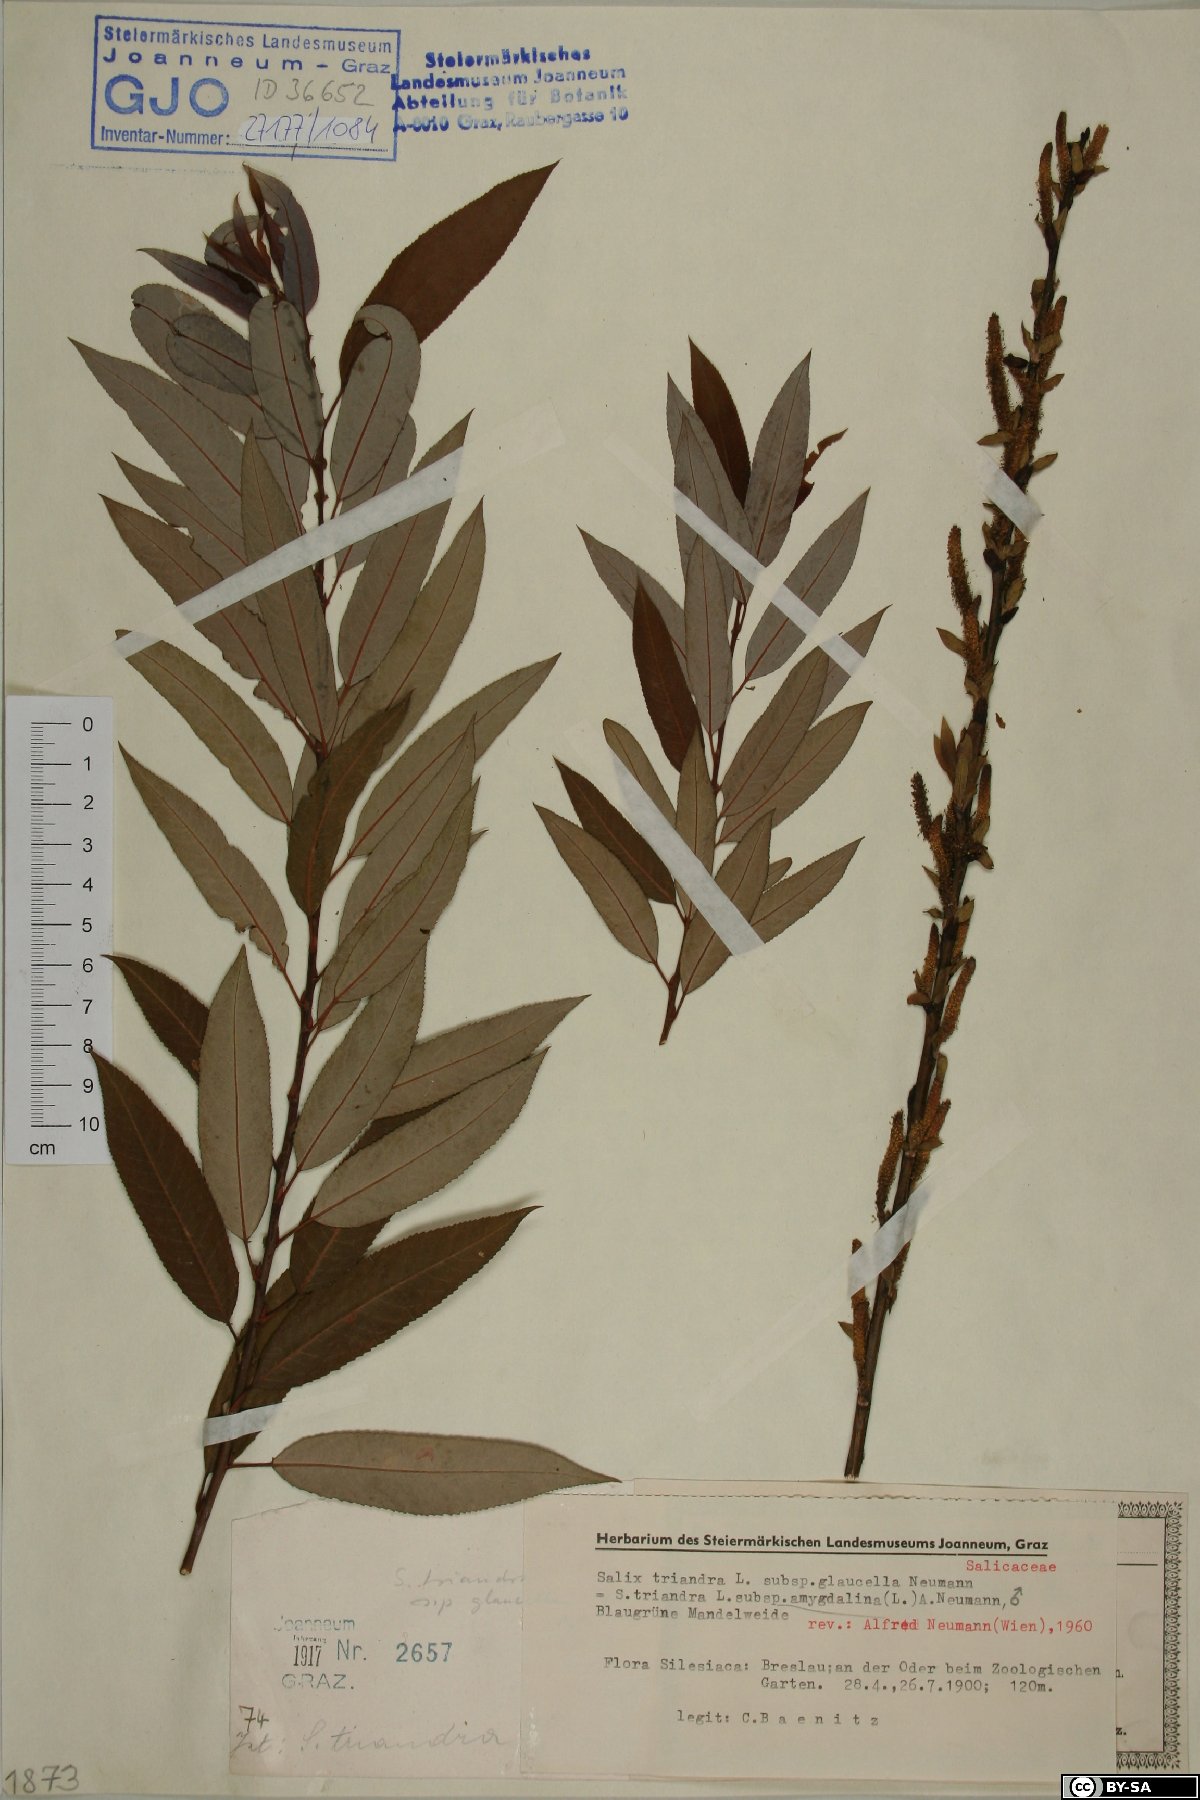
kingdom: Plantae
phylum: Tracheophyta
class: Magnoliopsida
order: Malpighiales
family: Salicaceae
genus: Salix
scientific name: Salix triandra
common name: Almond willow
